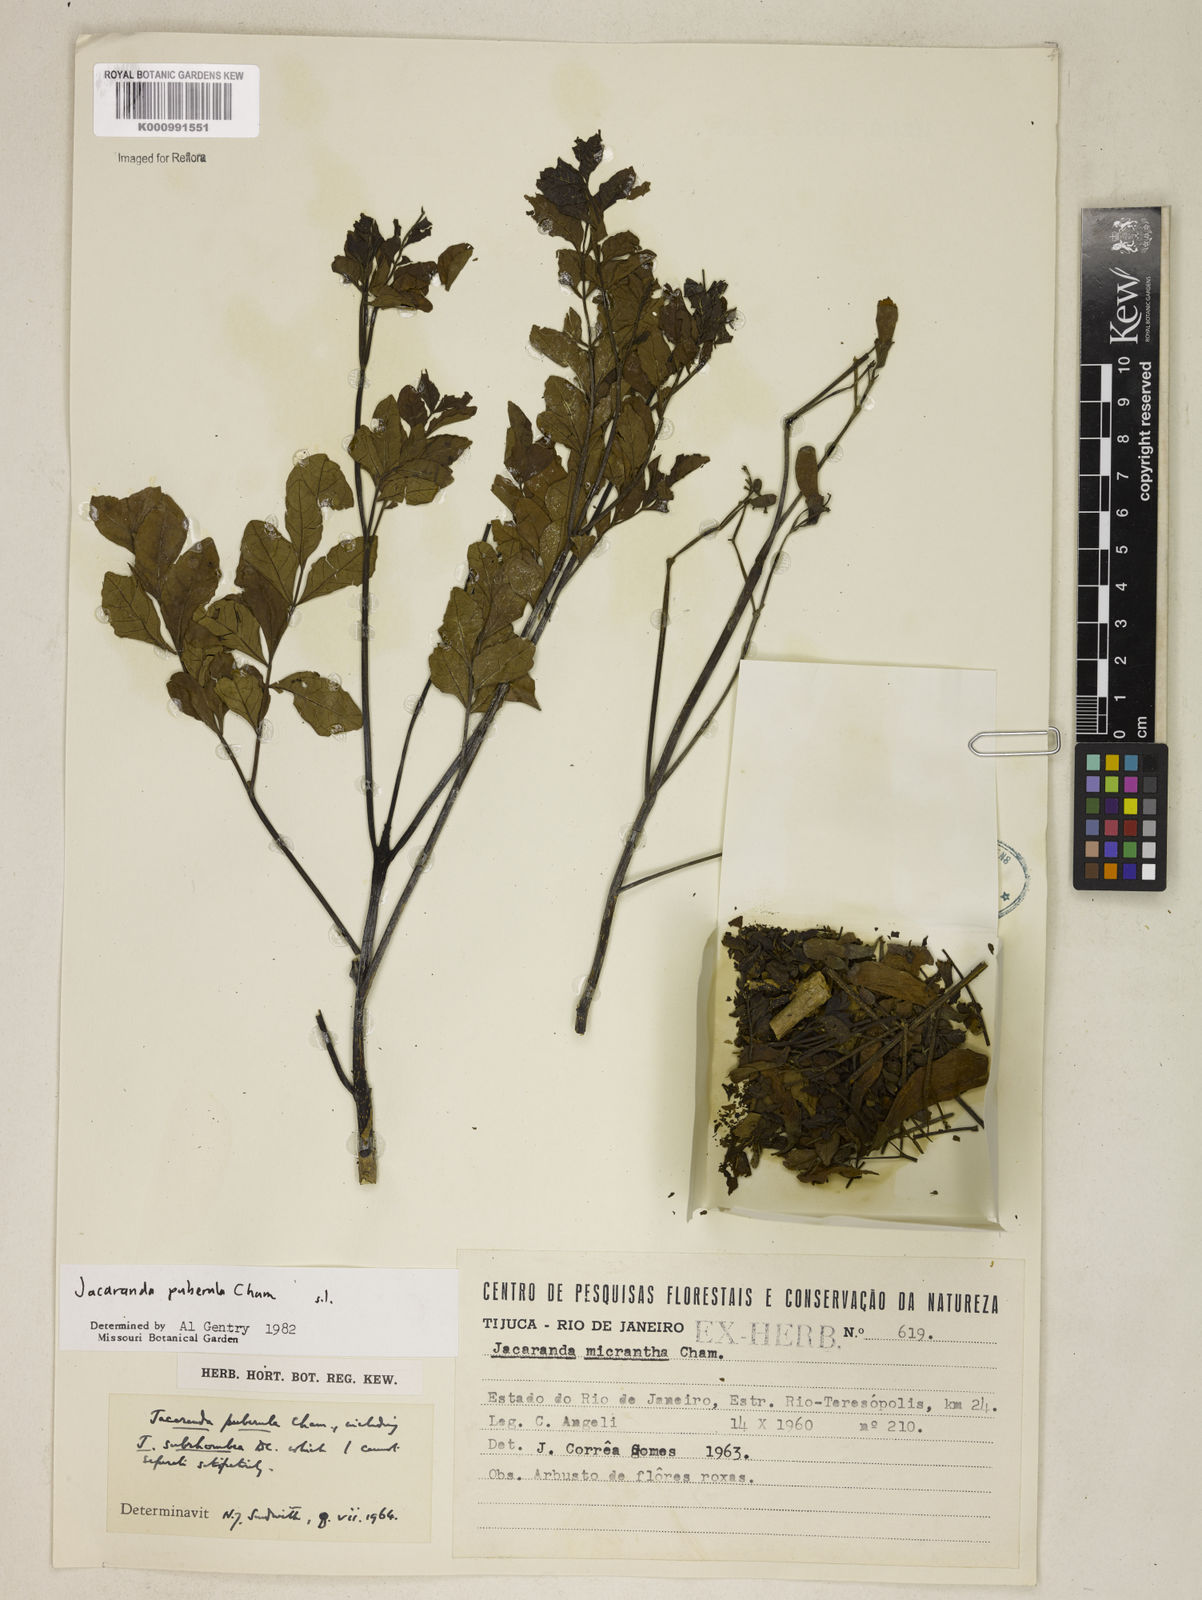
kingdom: Plantae
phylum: Tracheophyta
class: Magnoliopsida
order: Lamiales
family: Bignoniaceae
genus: Jacaranda
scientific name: Jacaranda puberula
